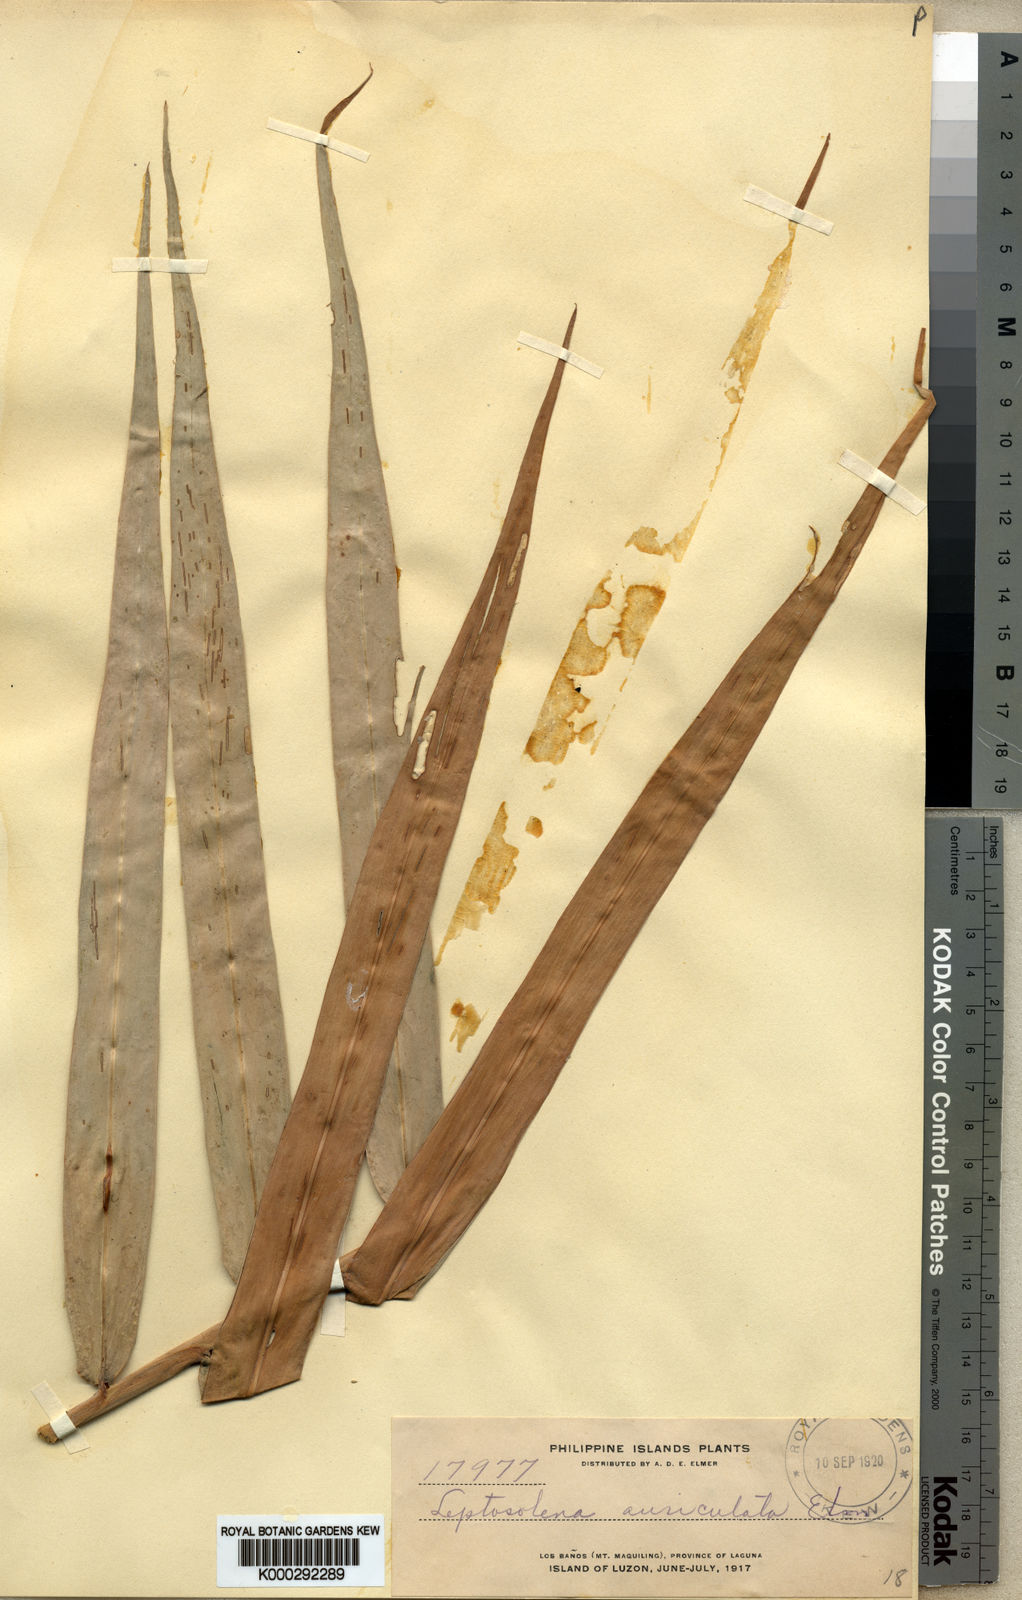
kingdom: Plantae
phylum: Tracheophyta
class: Liliopsida
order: Zingiberales
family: Zingiberaceae
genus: Leptosolena
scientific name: Leptosolena haenkei
